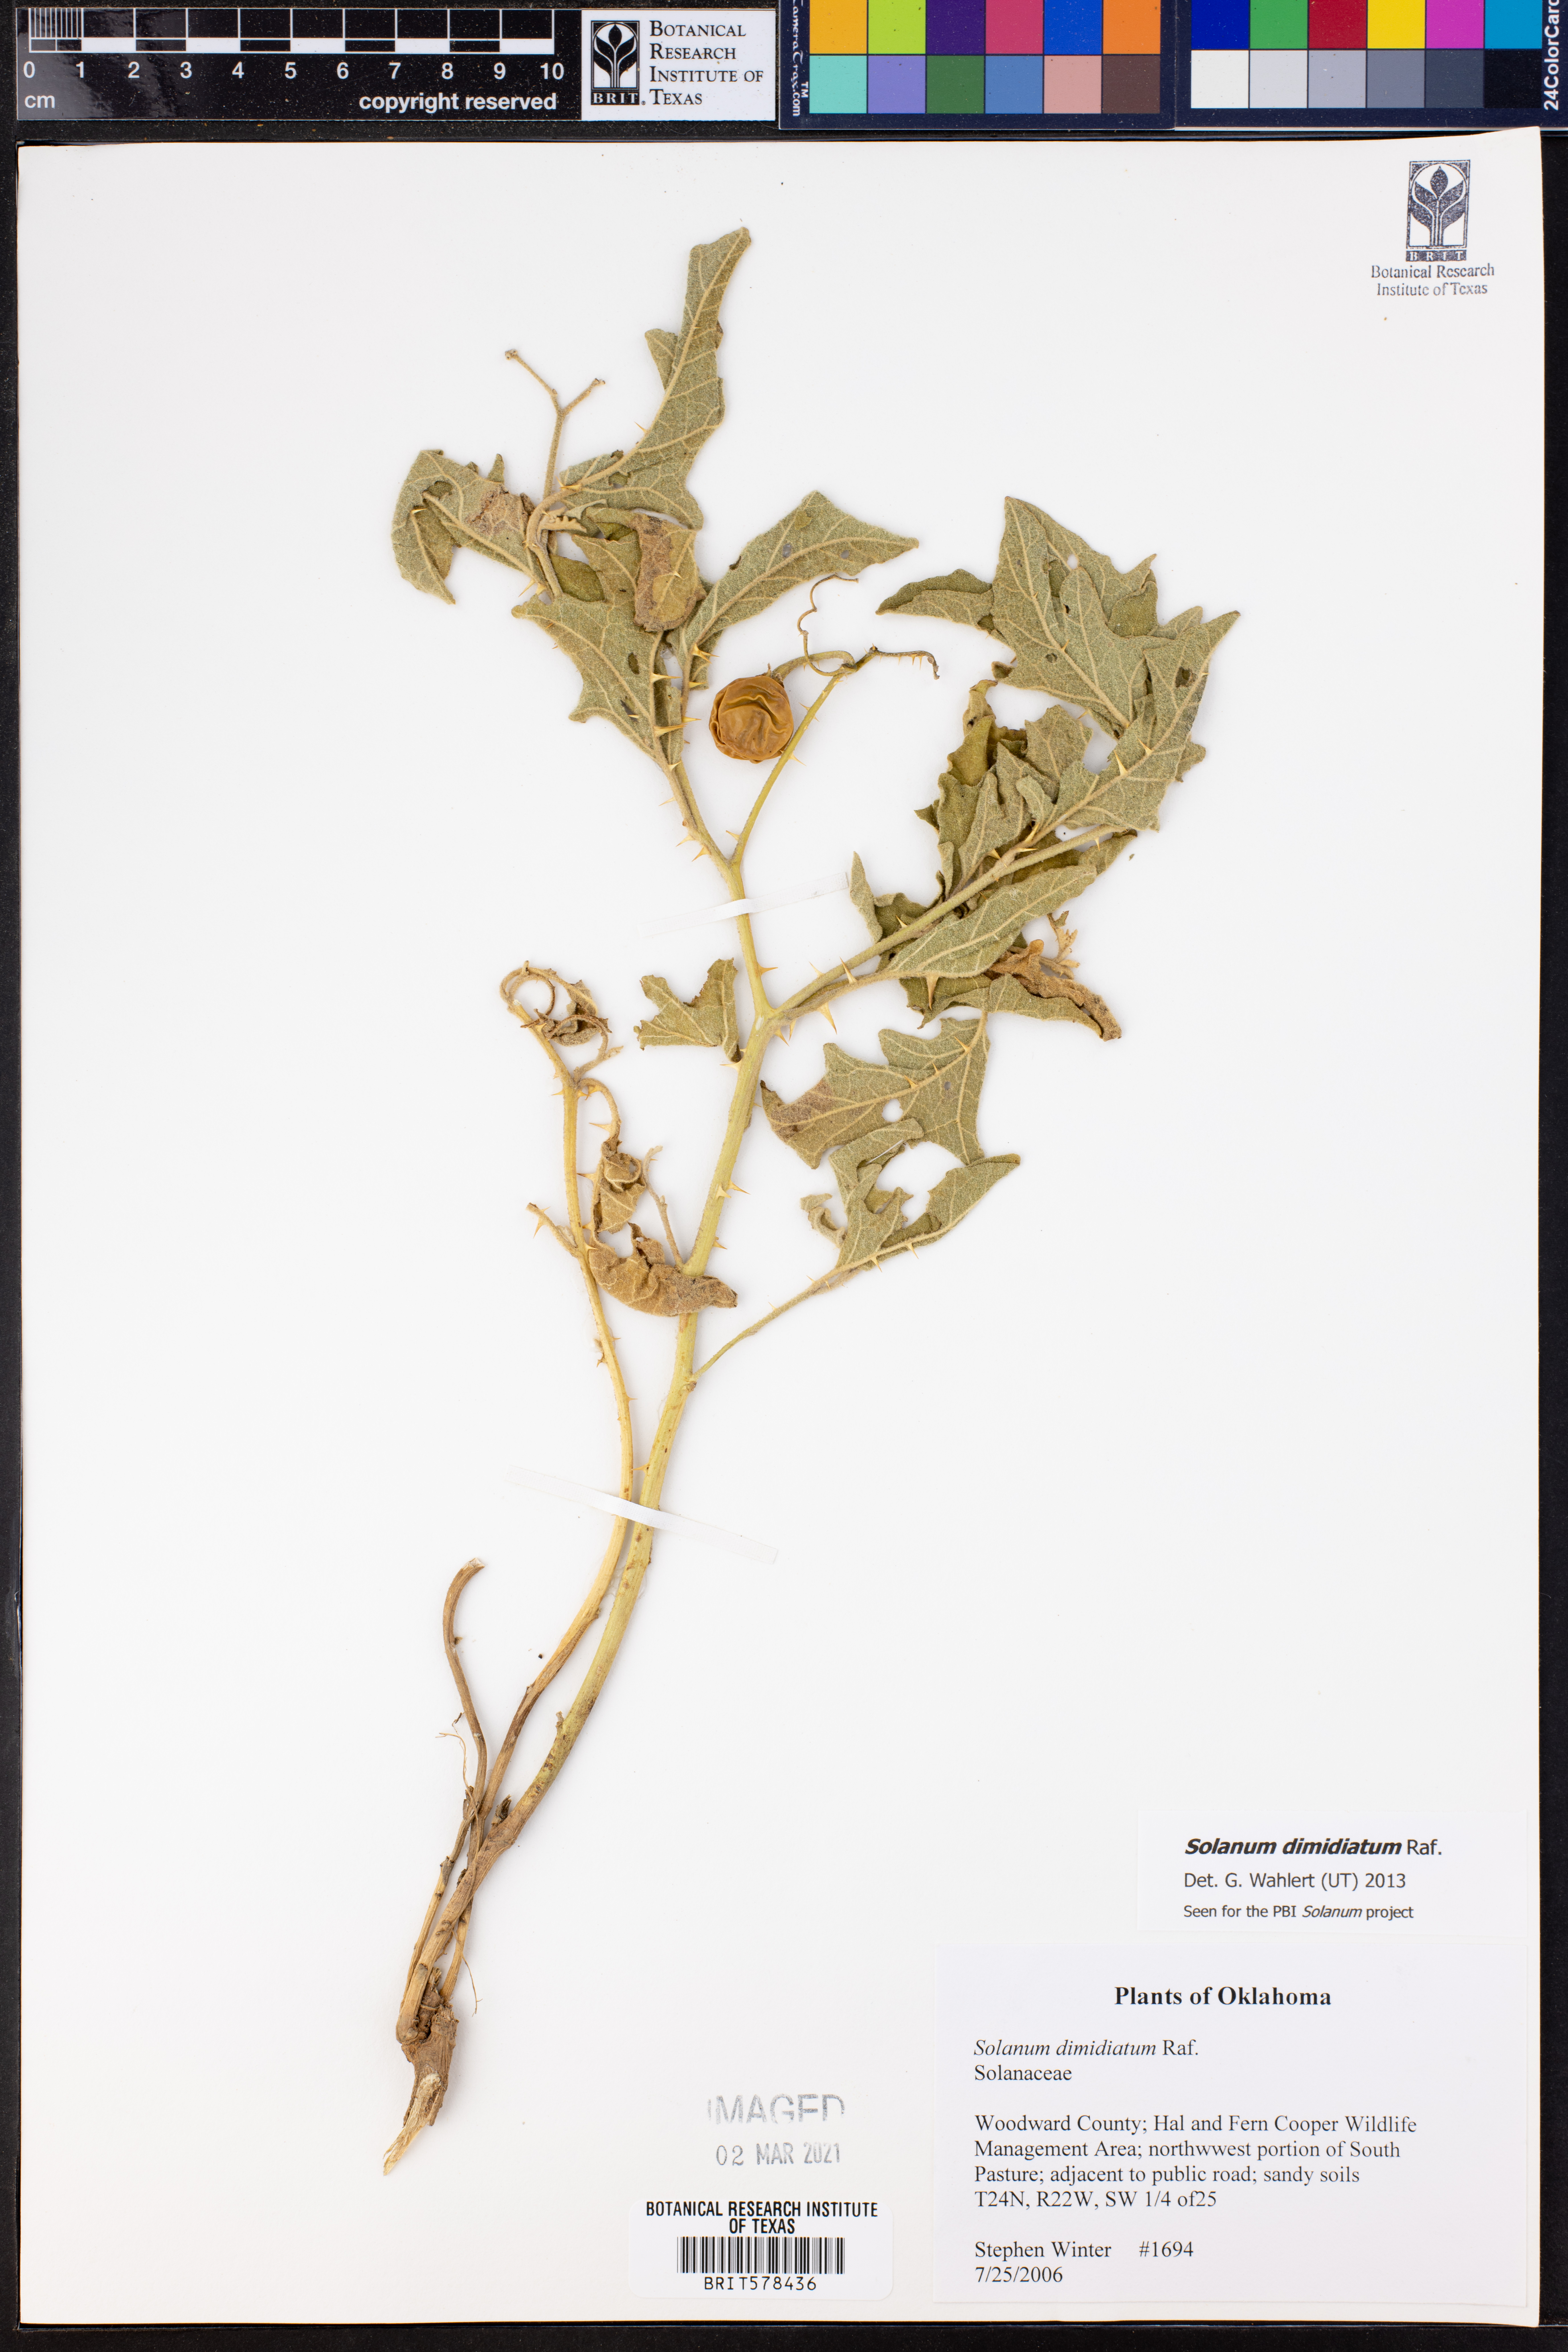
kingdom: Plantae
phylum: Tracheophyta
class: Magnoliopsida
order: Solanales
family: Solanaceae
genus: Solanum
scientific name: Solanum dimidiatum
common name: Carolina horse-nettle
